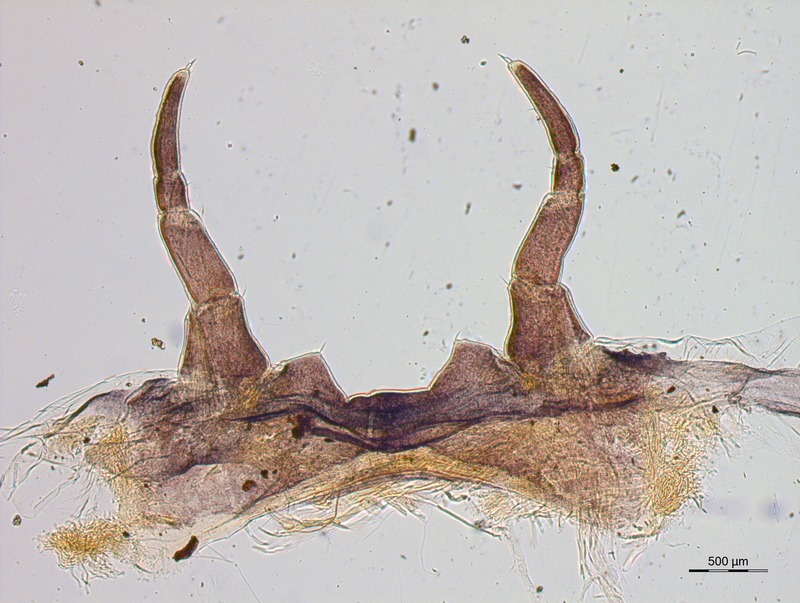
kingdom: Animalia
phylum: Arthropoda
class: Diplopoda
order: Glomerida
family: Glomeridae
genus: Haploglomeris
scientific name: Haploglomeris multistriata
